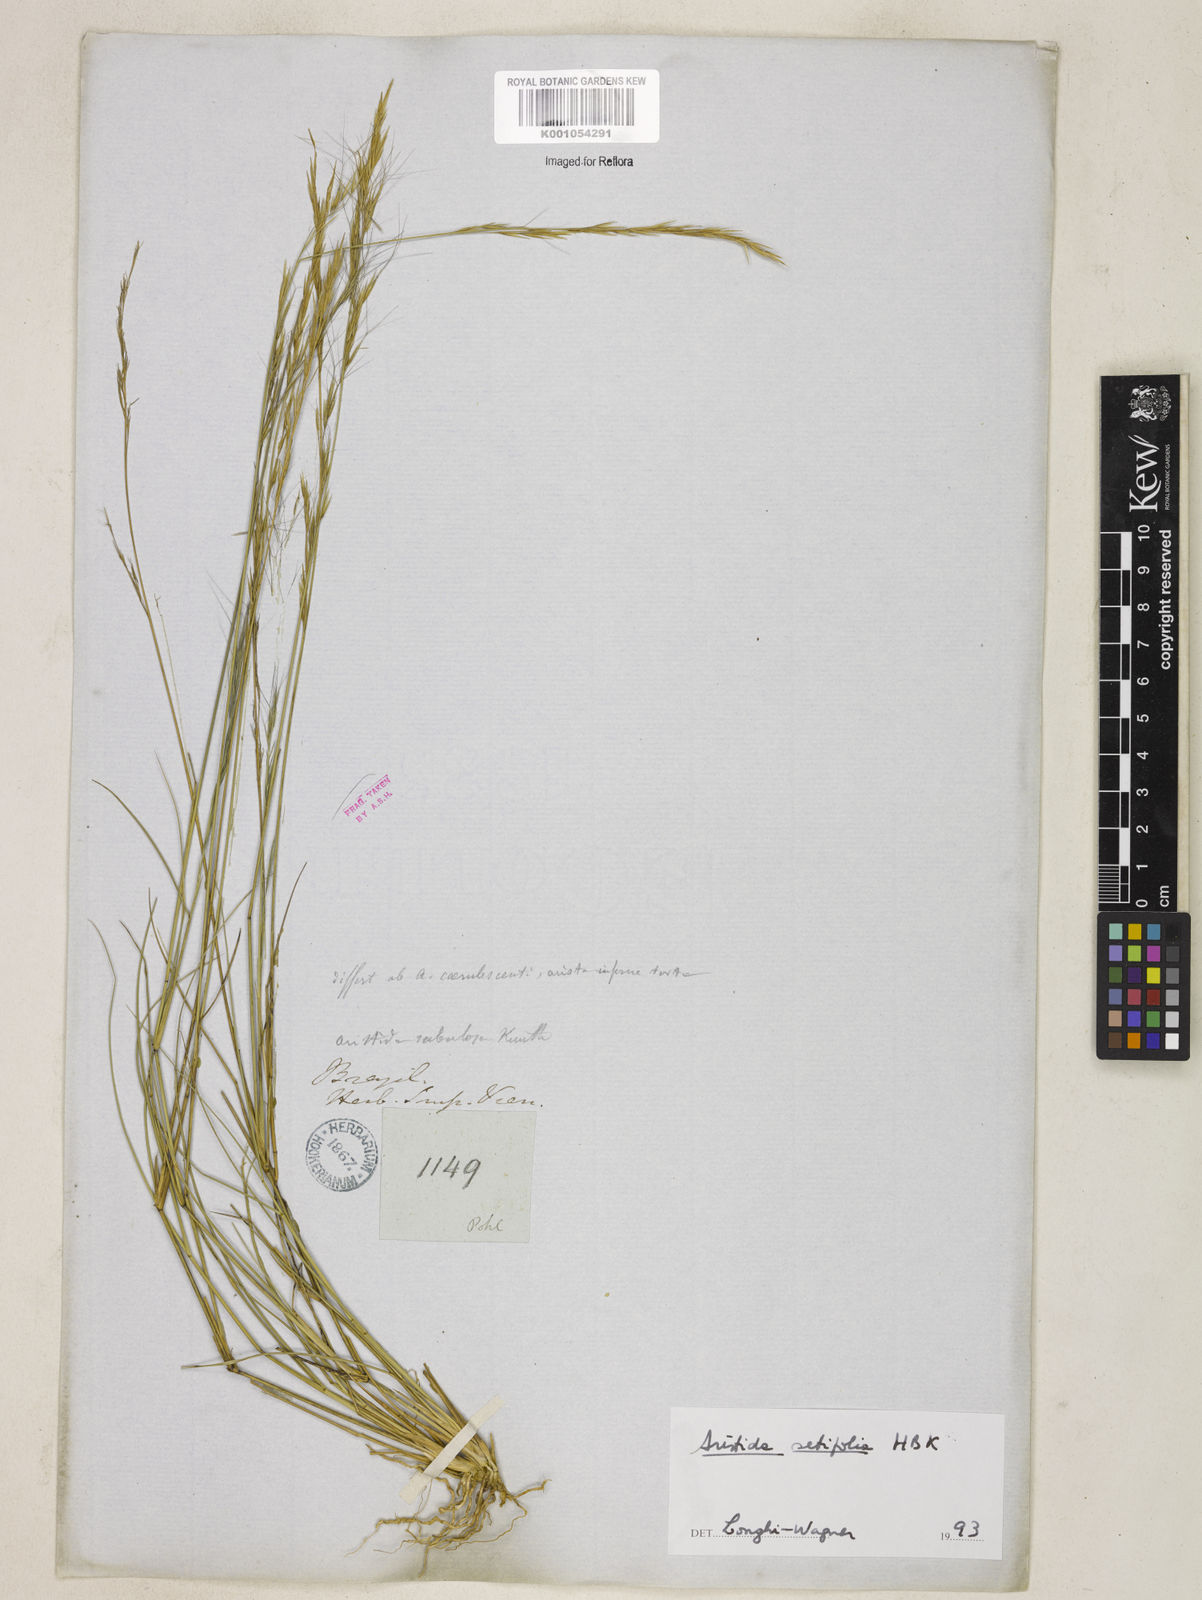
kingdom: Plantae
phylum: Tracheophyta
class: Liliopsida
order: Poales
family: Poaceae
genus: Aristida
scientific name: Aristida setifolia
